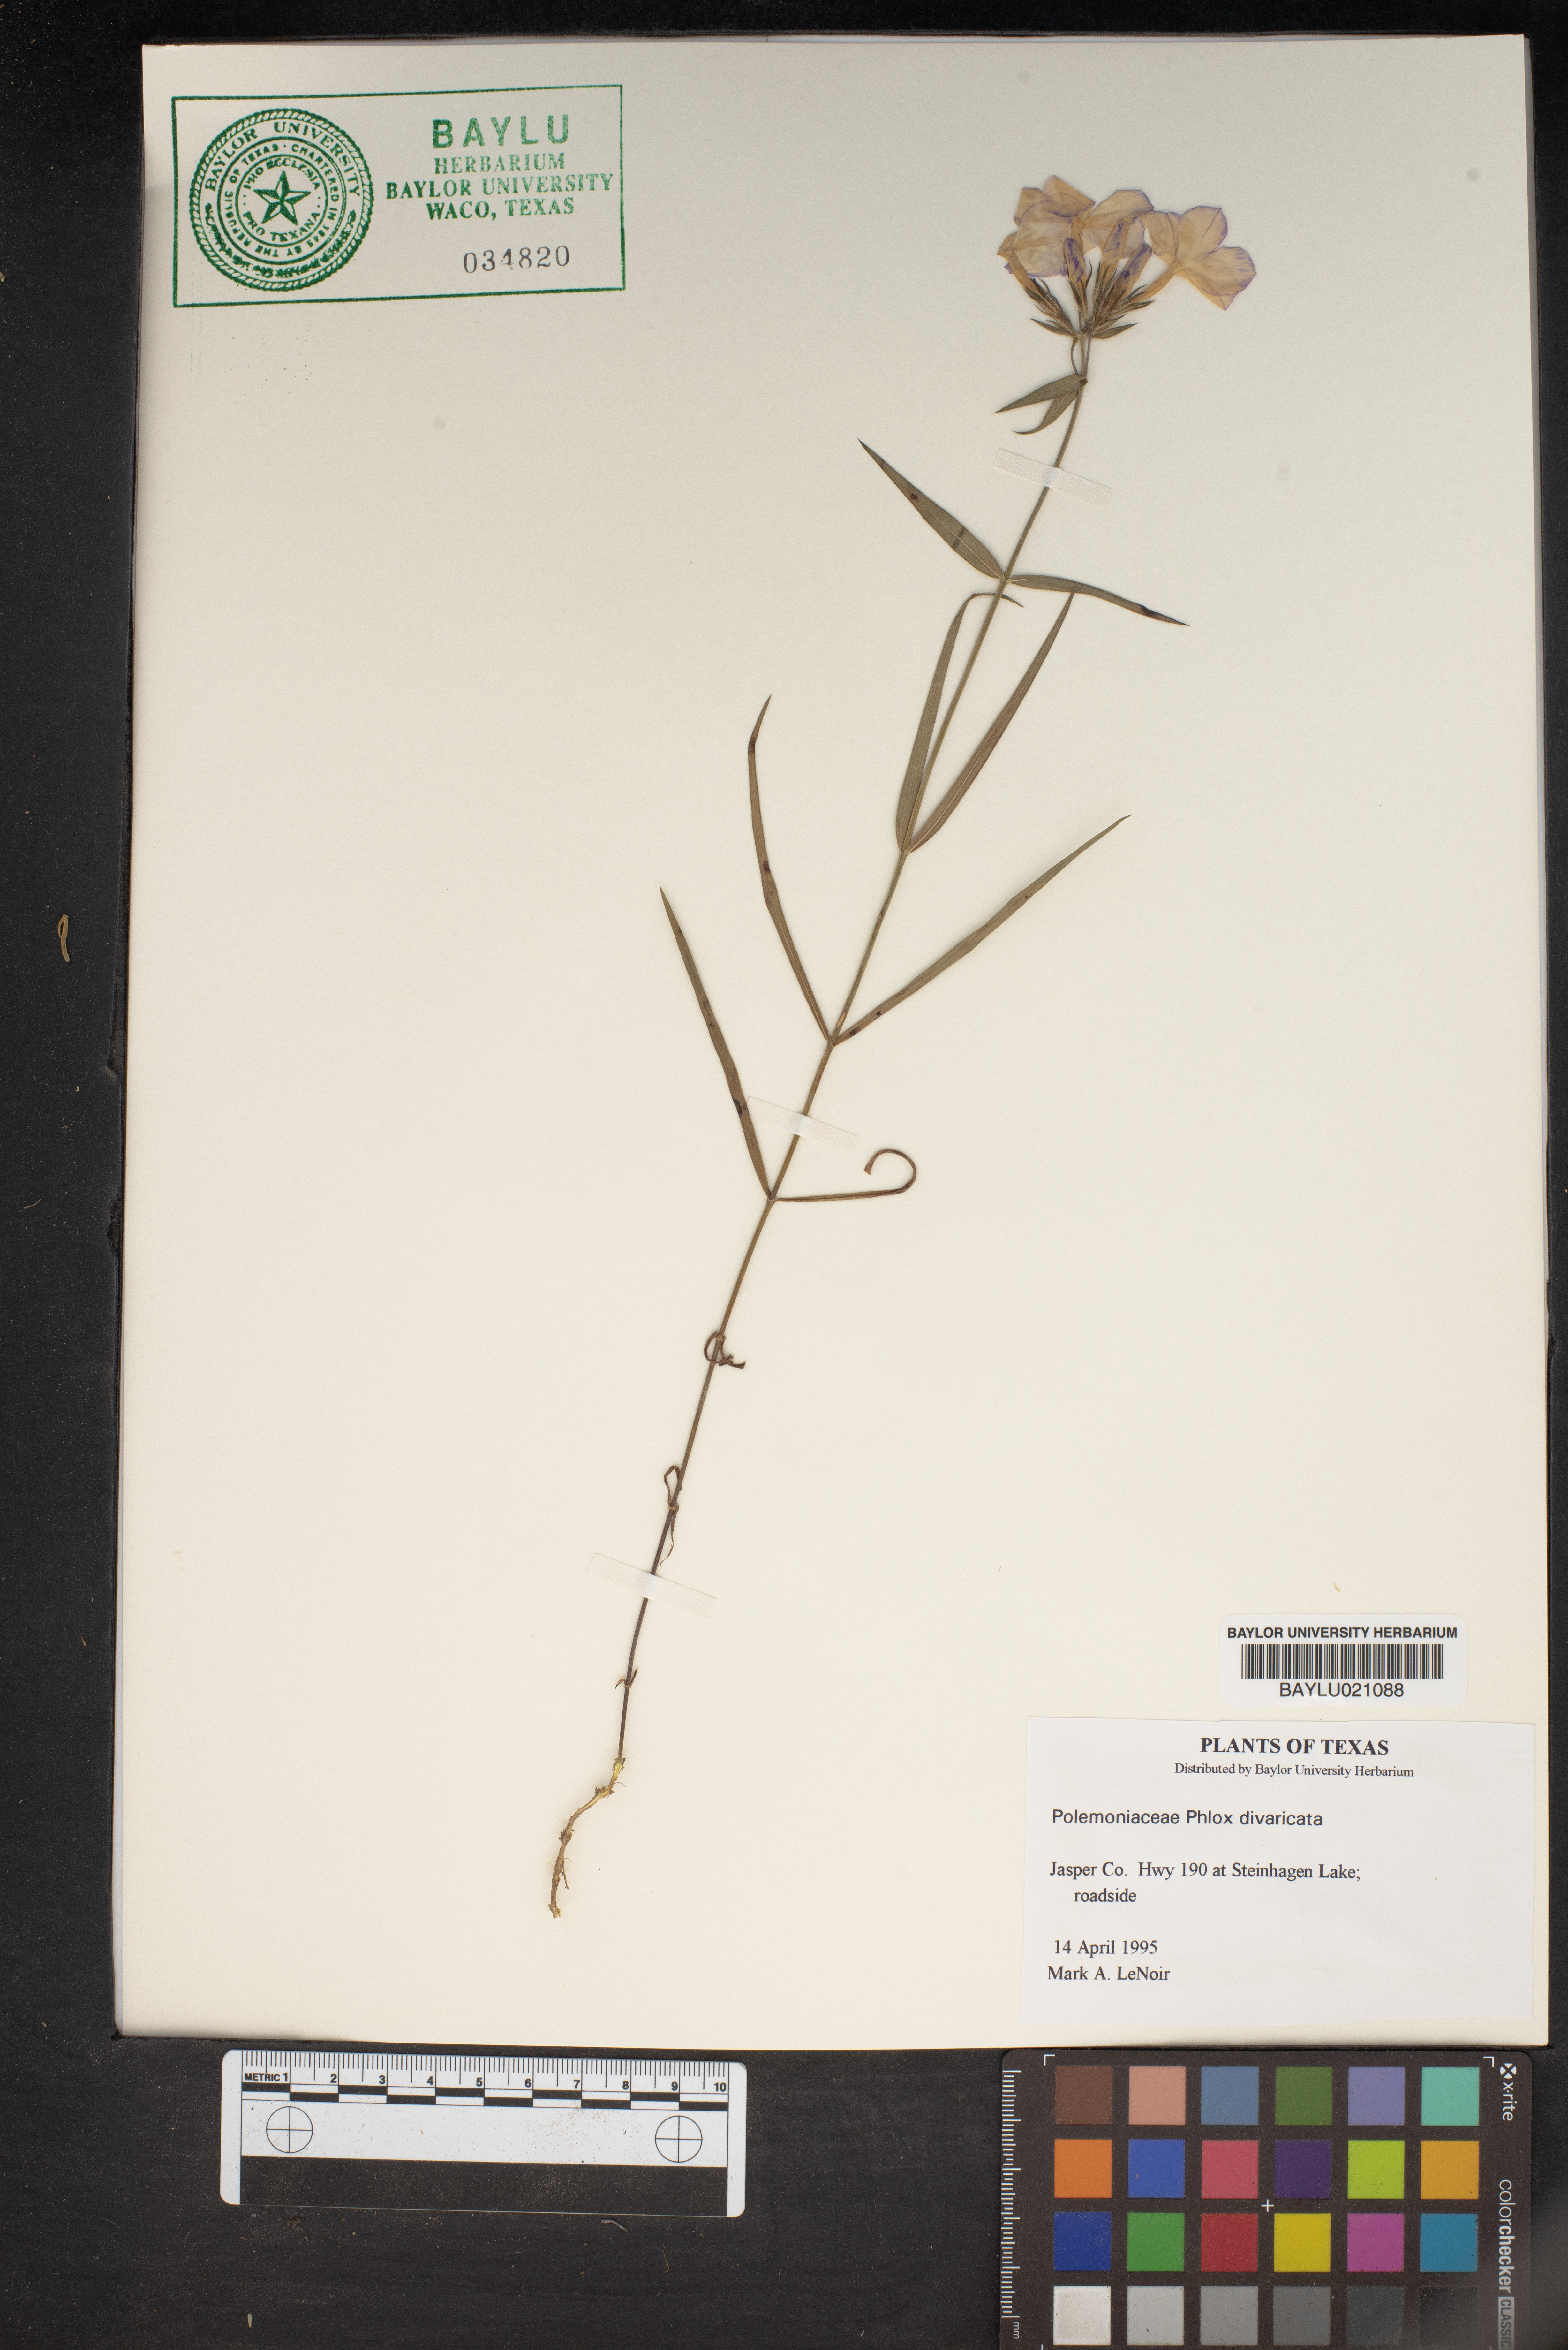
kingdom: Plantae
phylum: Tracheophyta
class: Magnoliopsida
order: Ericales
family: Polemoniaceae
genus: Phlox
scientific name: Phlox divaricata
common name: Blue phlox
